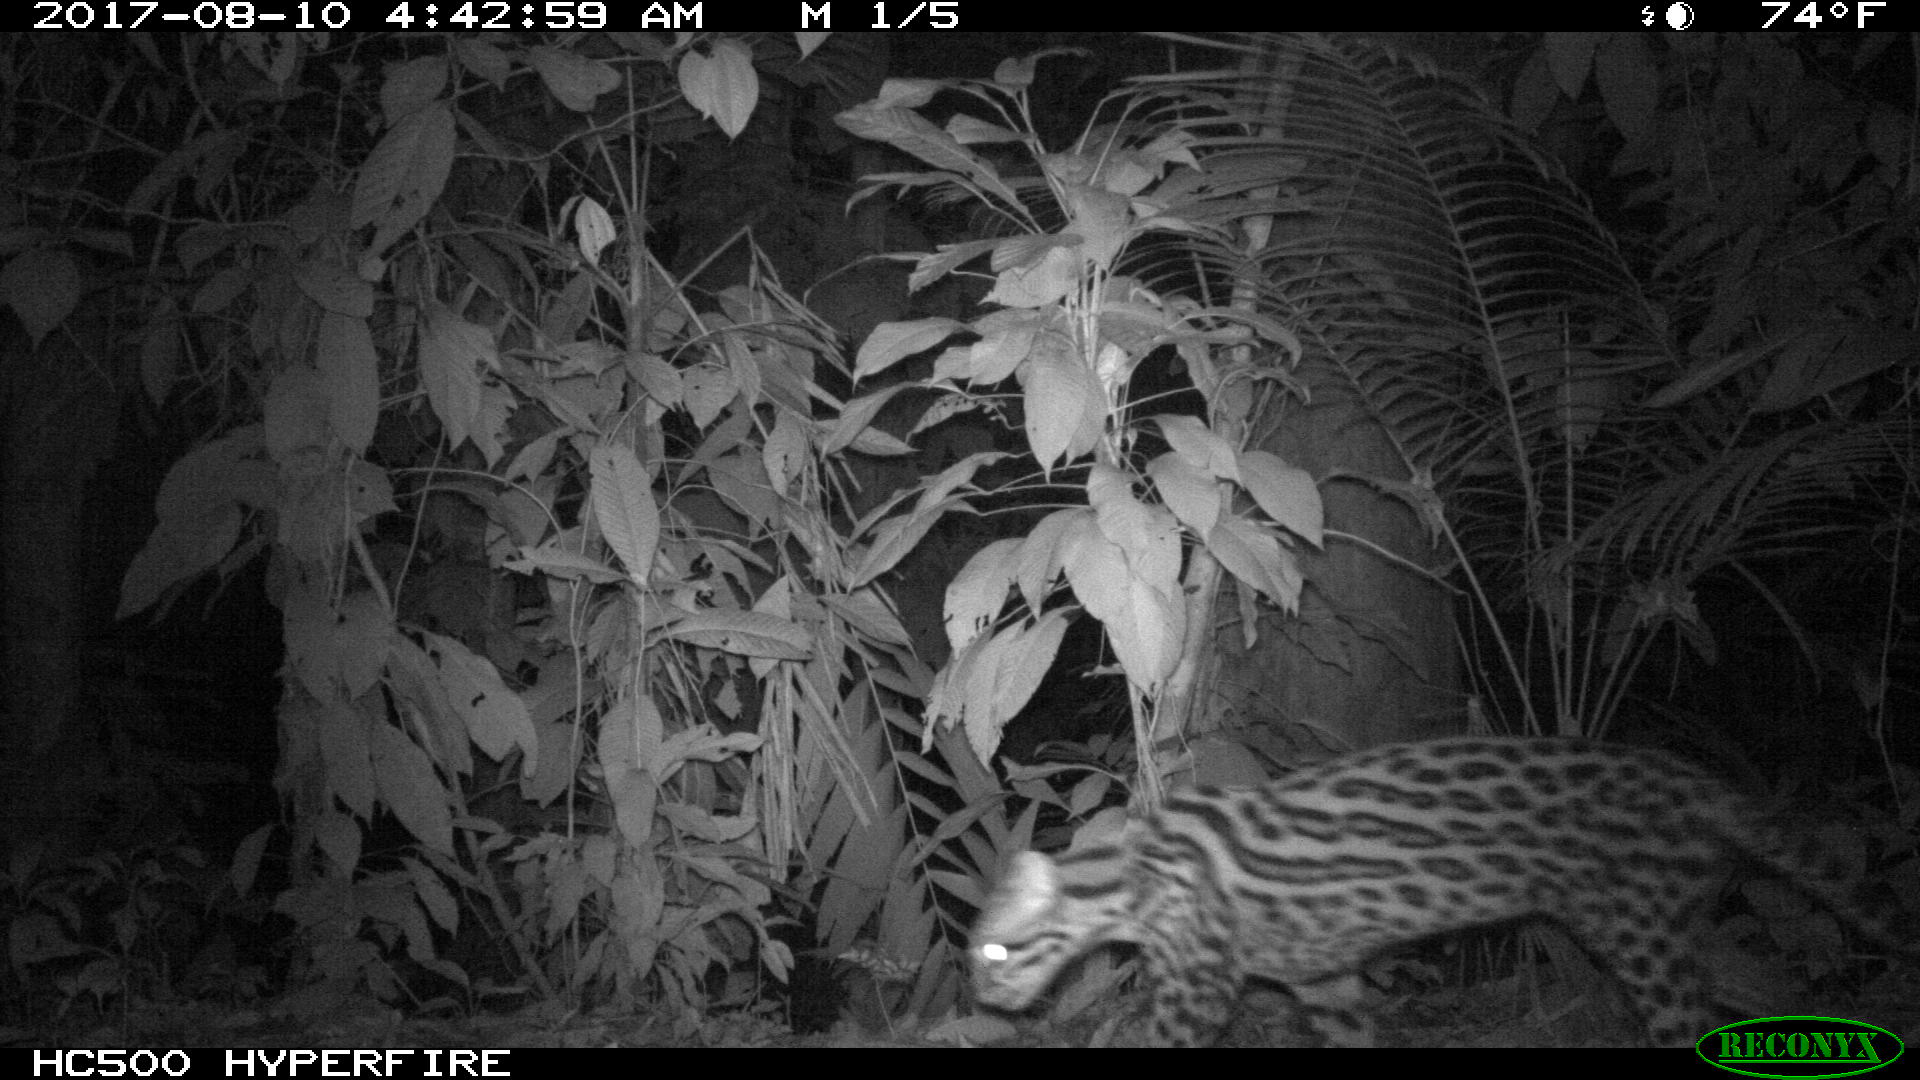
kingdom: Animalia
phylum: Chordata
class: Mammalia
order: Carnivora
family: Felidae
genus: Leopardus
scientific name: Leopardus pardalis
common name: Ocelot
